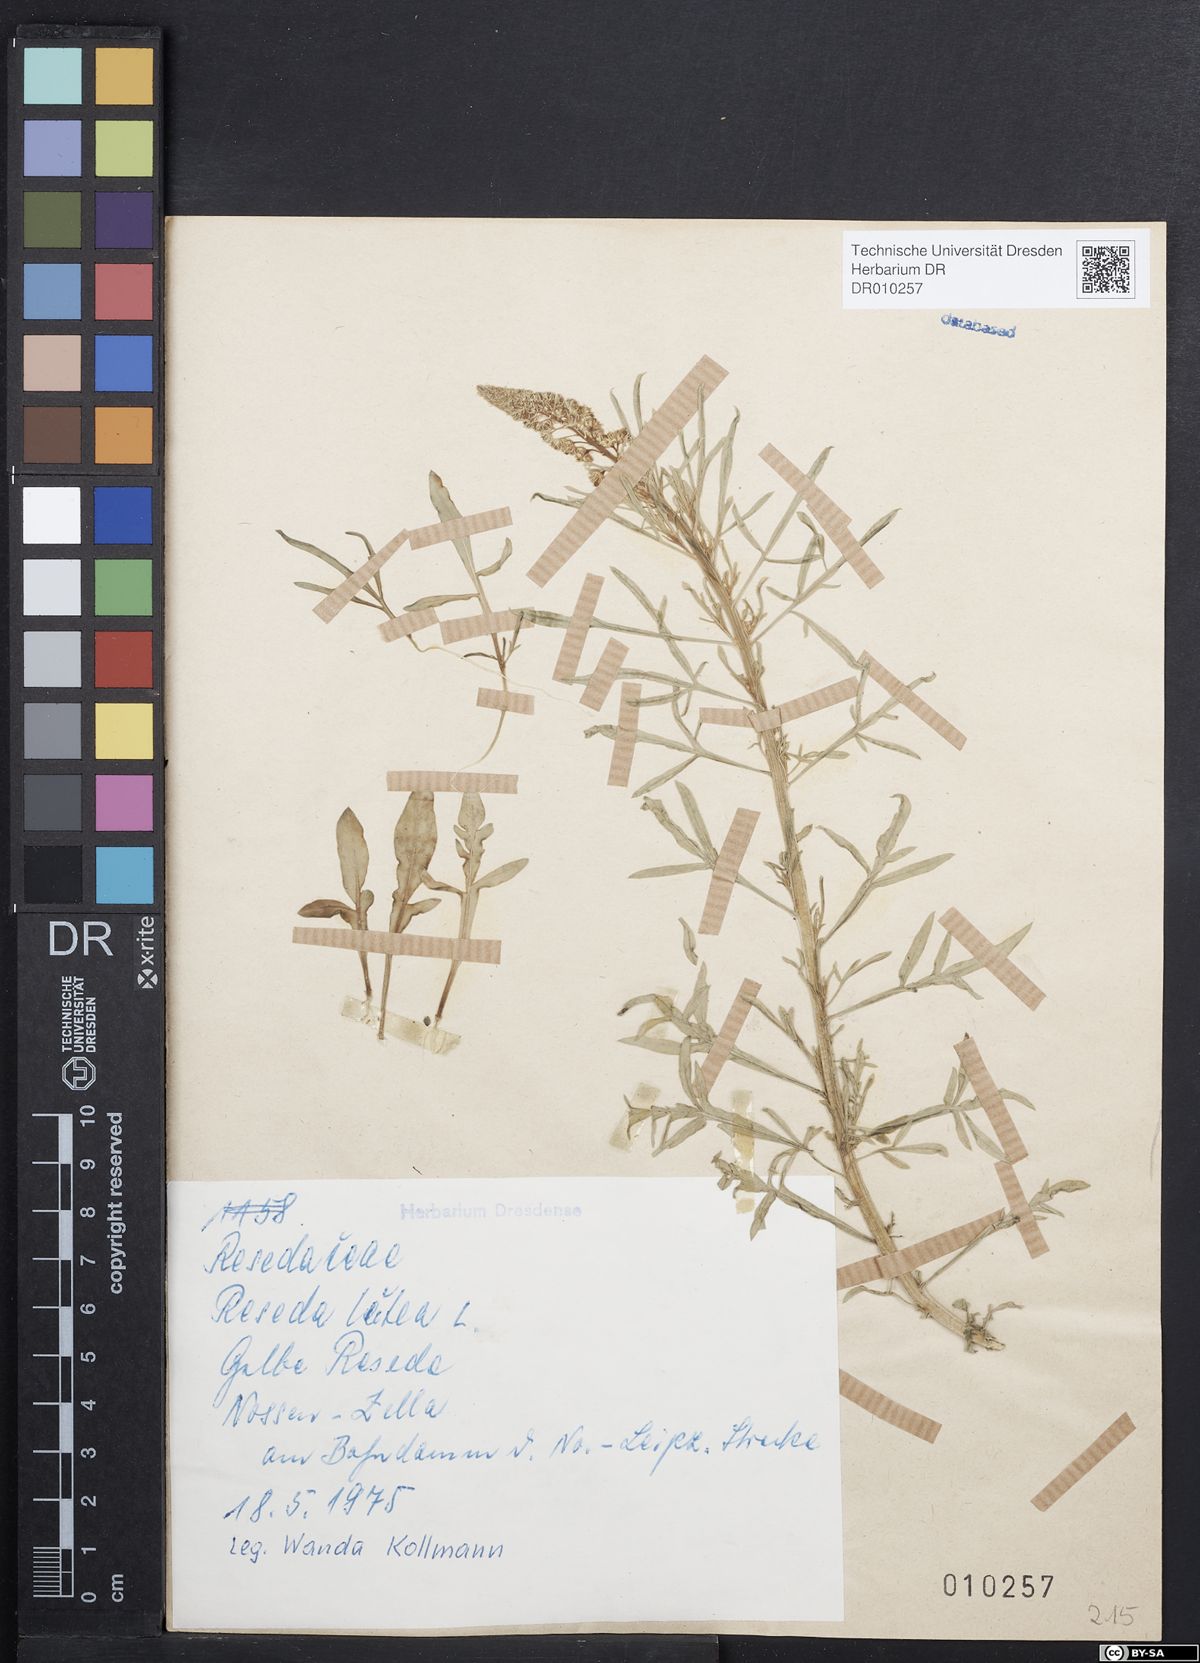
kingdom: Plantae
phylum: Tracheophyta
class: Magnoliopsida
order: Brassicales
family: Resedaceae
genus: Reseda
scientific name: Reseda lutea
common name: Wild mignonette
